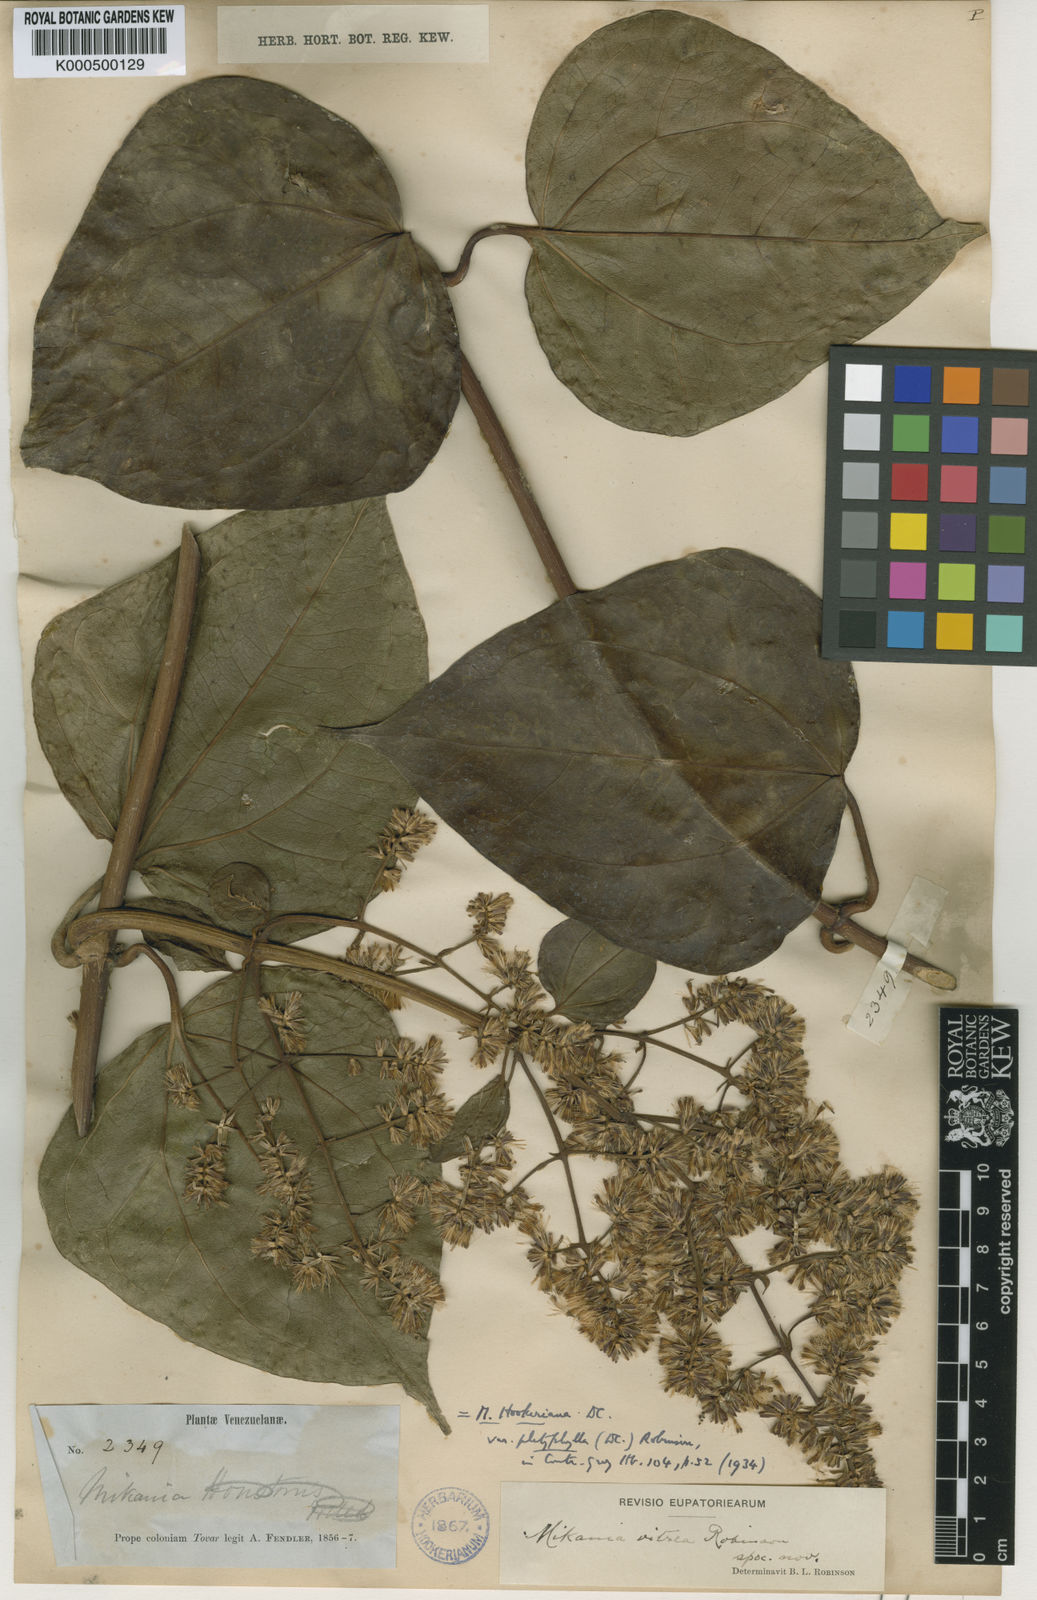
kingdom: Plantae
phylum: Tracheophyta
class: Magnoliopsida
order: Asterales
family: Asteraceae
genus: Mikania
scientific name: Mikania hookeriana
